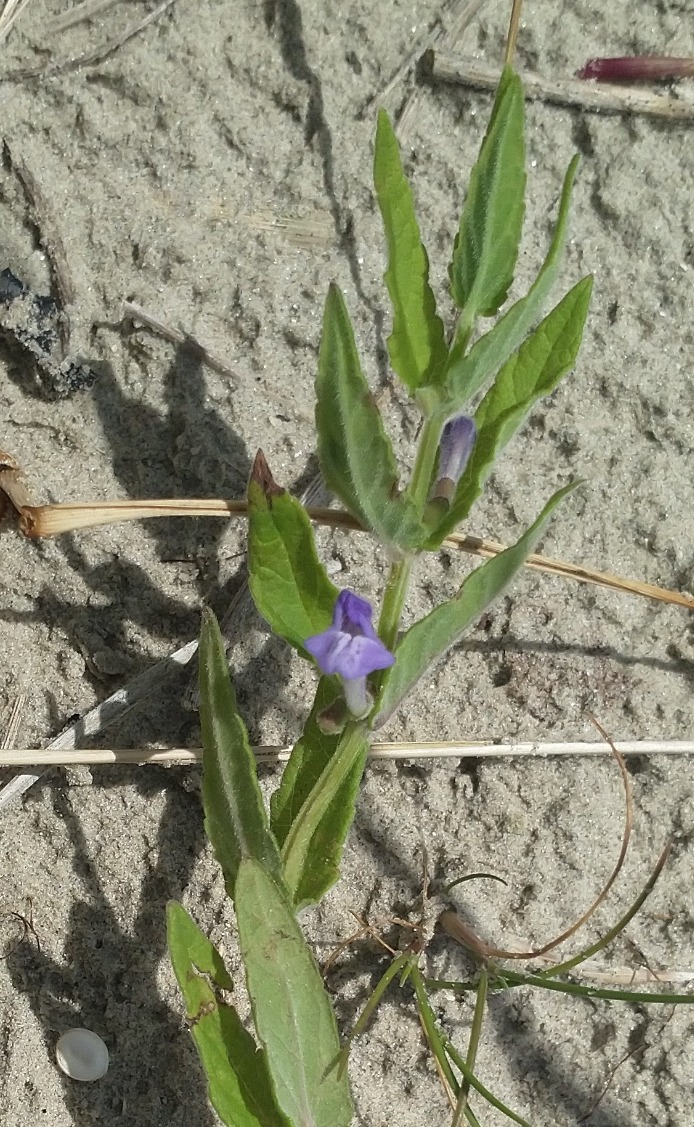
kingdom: Plantae
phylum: Tracheophyta
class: Magnoliopsida
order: Lamiales
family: Lamiaceae
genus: Scutellaria
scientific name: Scutellaria galericulata
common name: Almindelig skjolddrager
